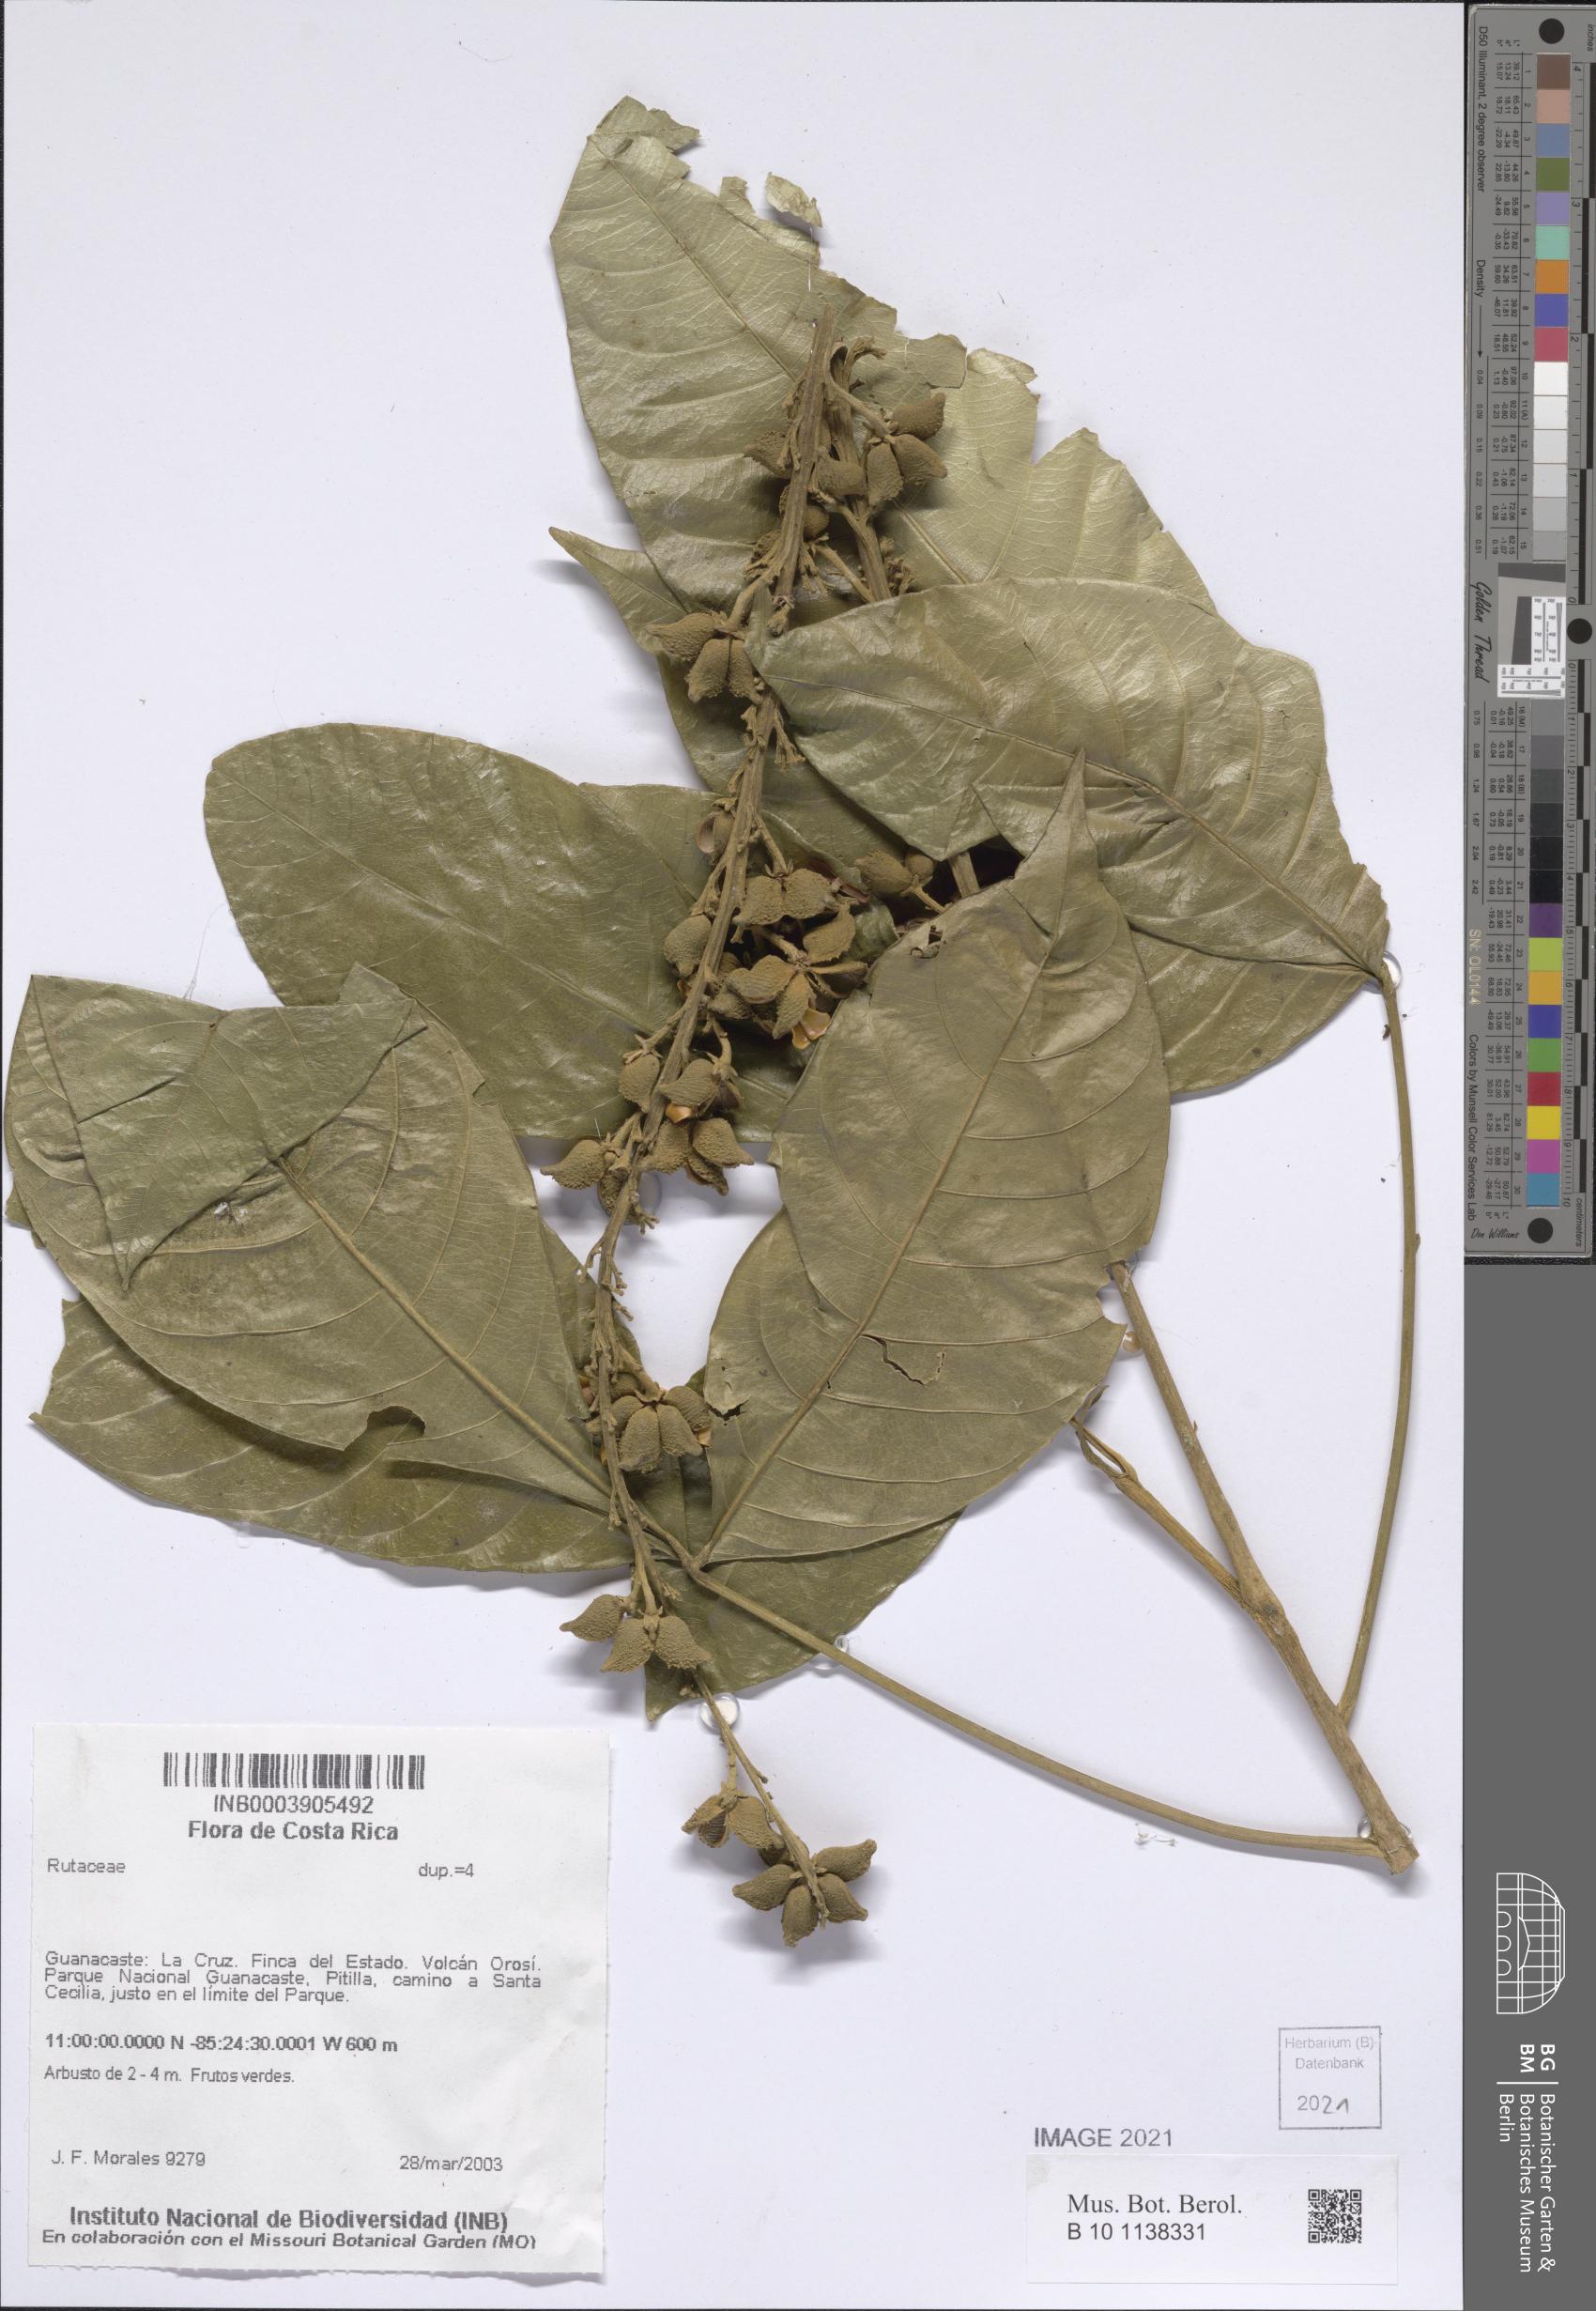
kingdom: Plantae
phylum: Tracheophyta
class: Magnoliopsida
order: Sapindales
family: Rutaceae
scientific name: Rutaceae
